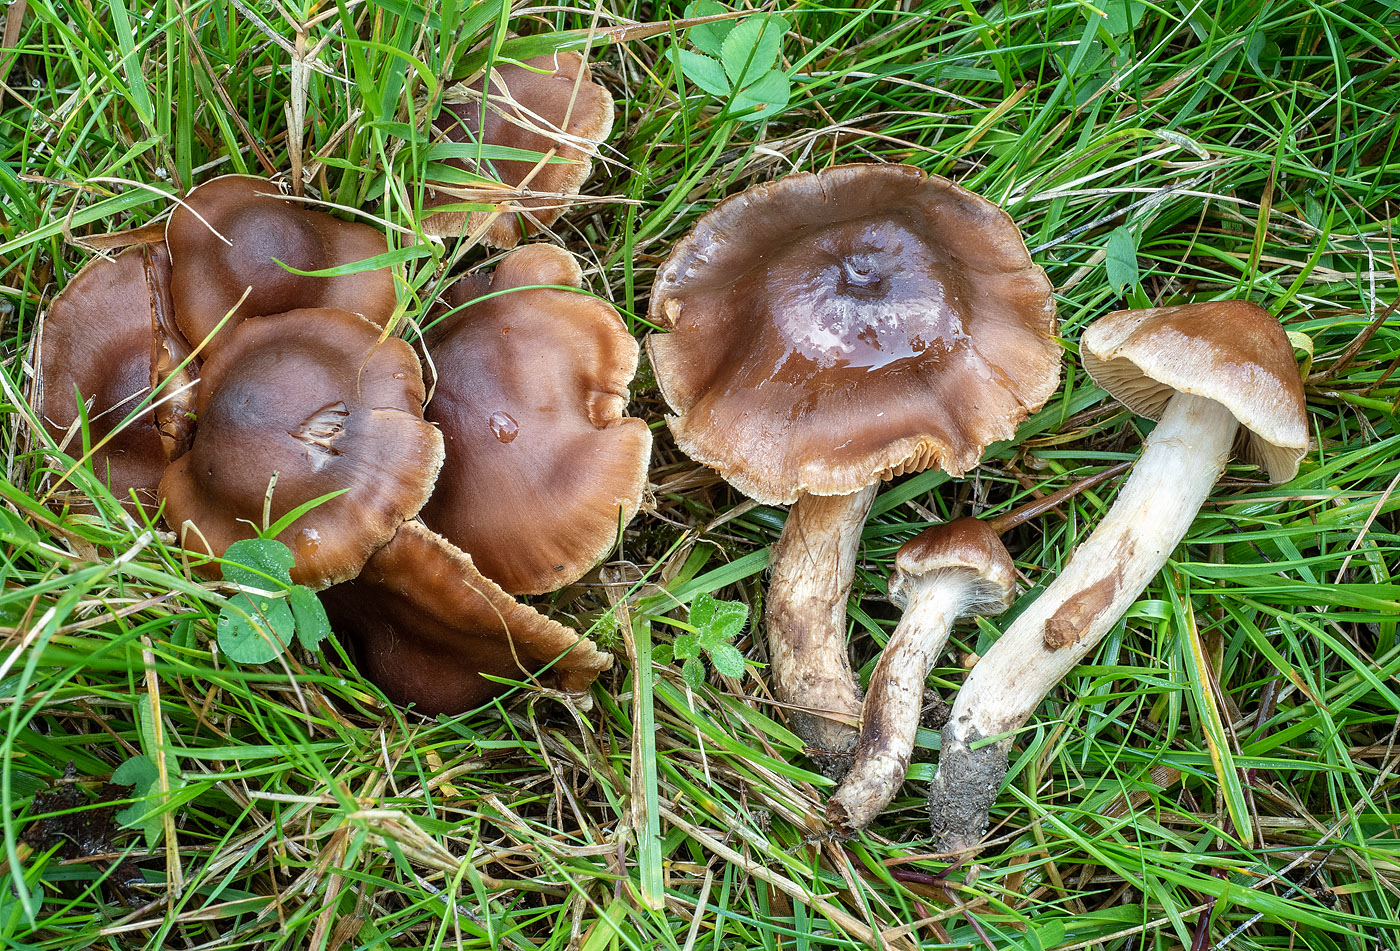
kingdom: Fungi
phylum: Basidiomycota
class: Agaricomycetes
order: Agaricales
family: Cortinariaceae
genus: Cortinarius
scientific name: Cortinarius fuscogracilescens
